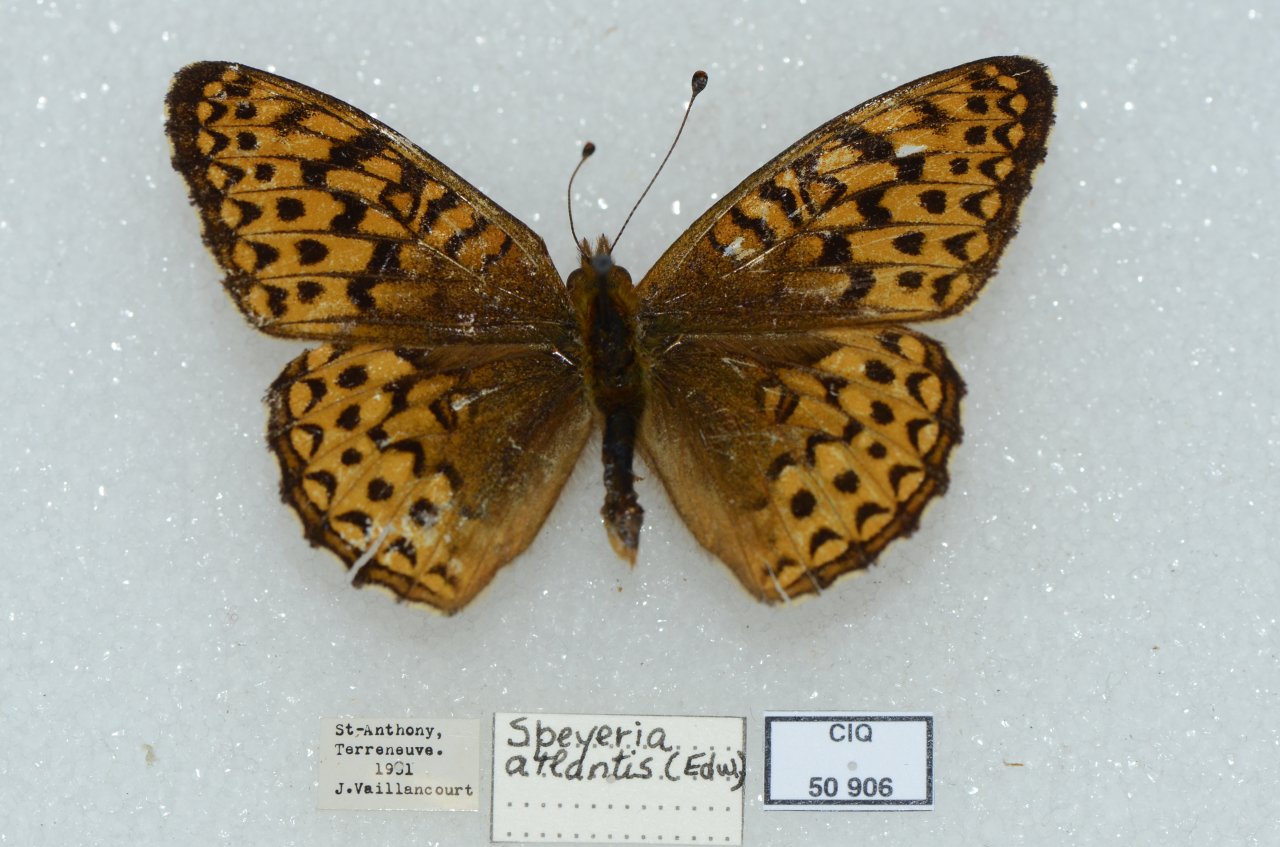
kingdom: Animalia
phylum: Arthropoda
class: Insecta
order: Lepidoptera
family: Nymphalidae
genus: Speyeria
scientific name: Speyeria atlantis
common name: Atlantis Fritillary
